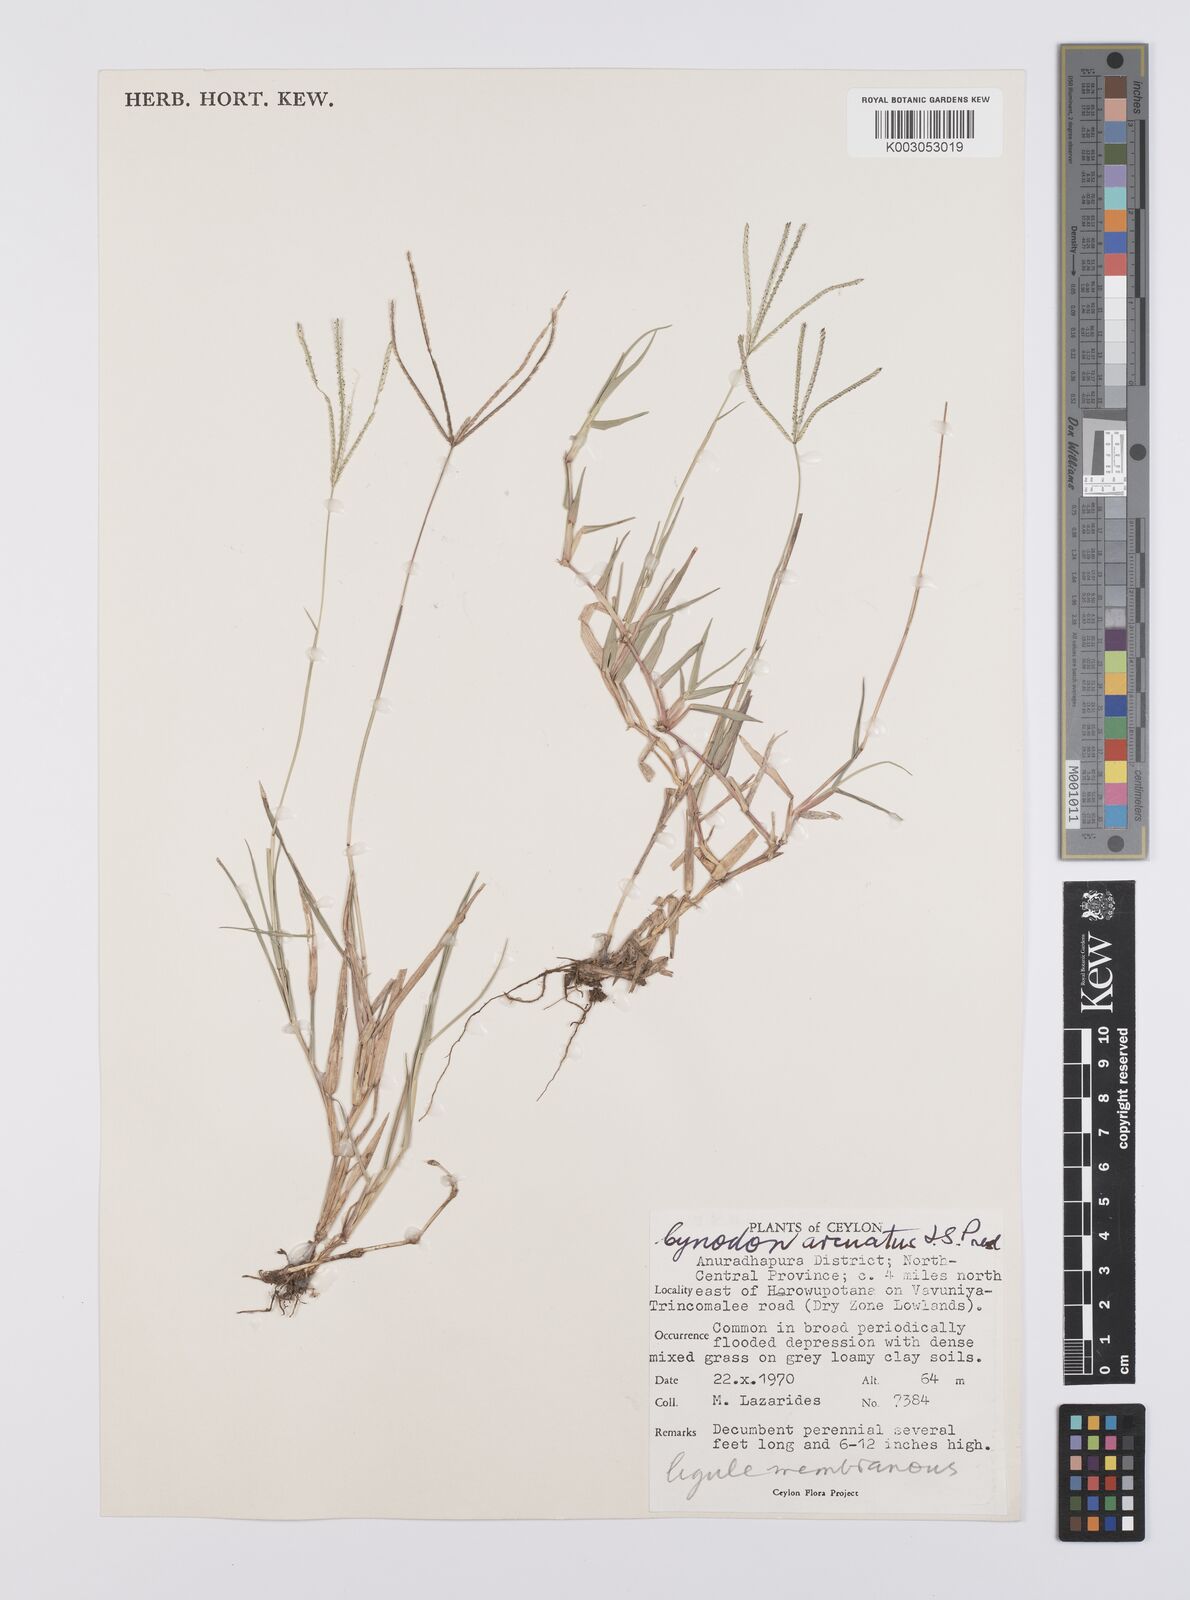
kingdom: Plantae
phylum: Tracheophyta
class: Liliopsida
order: Poales
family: Poaceae
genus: Cynodon
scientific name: Cynodon radiatus
